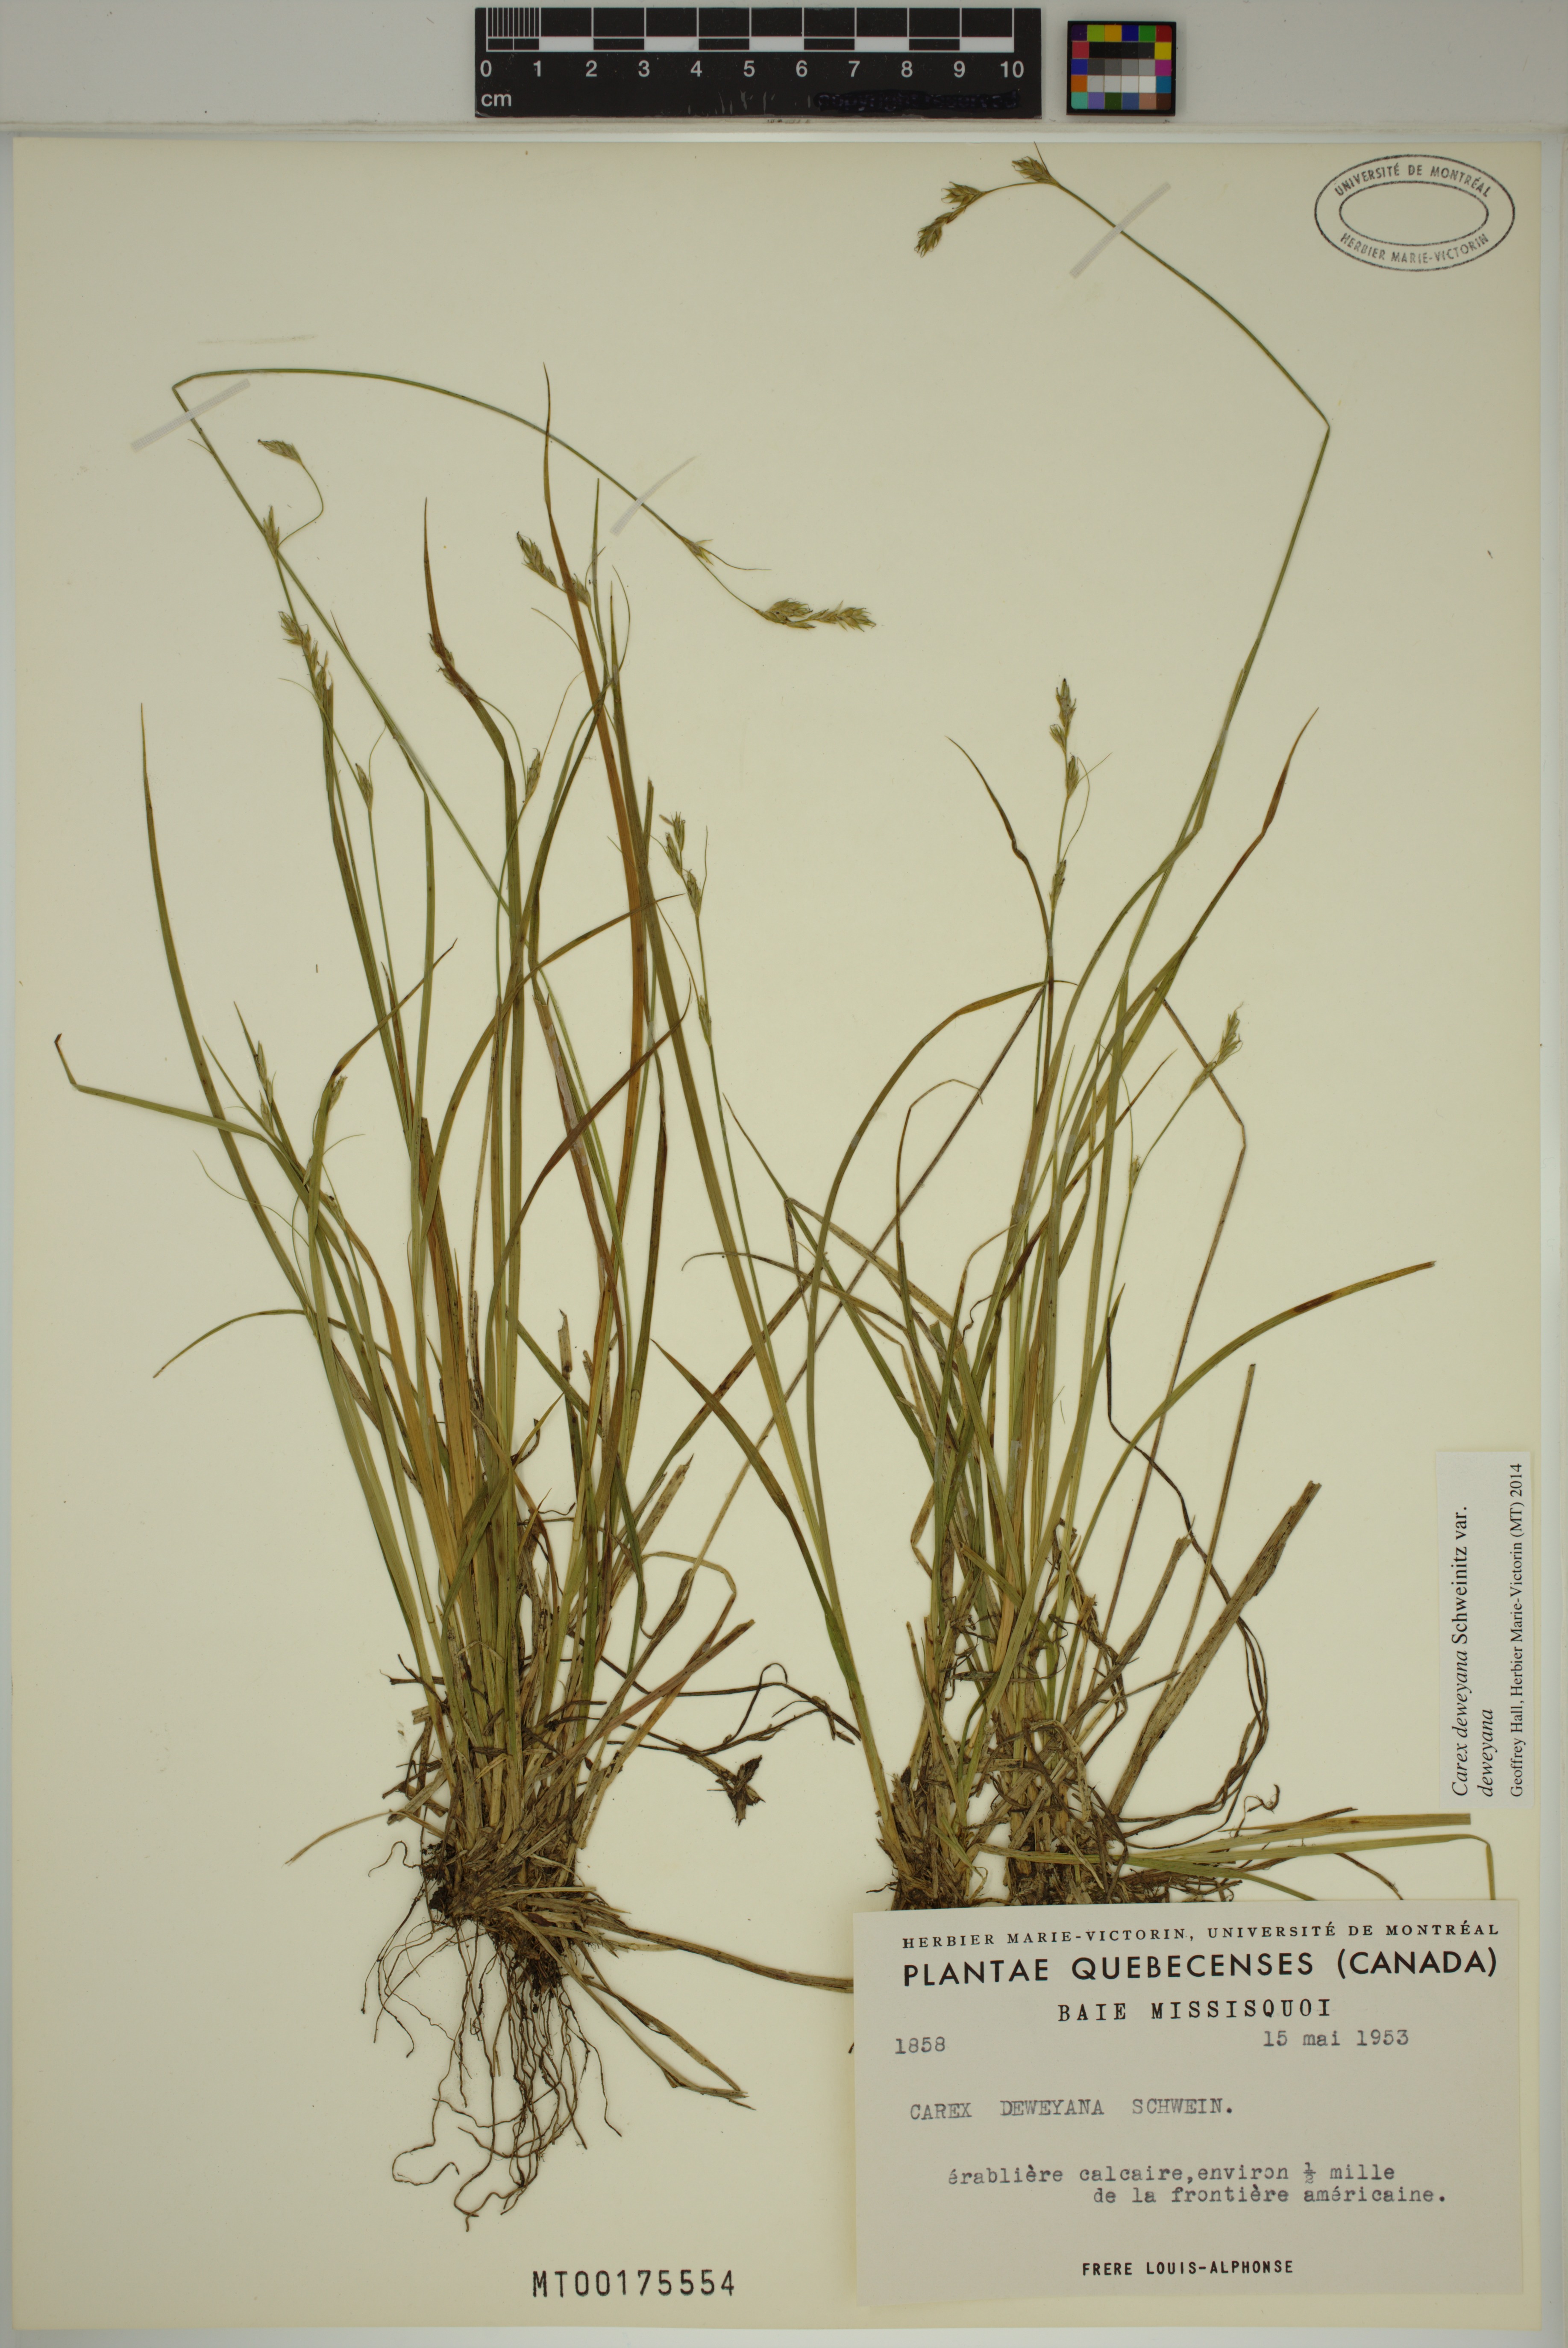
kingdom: Plantae
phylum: Tracheophyta
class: Liliopsida
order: Poales
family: Cyperaceae
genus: Carex
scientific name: Carex deweyana
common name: Dewey's sedge
